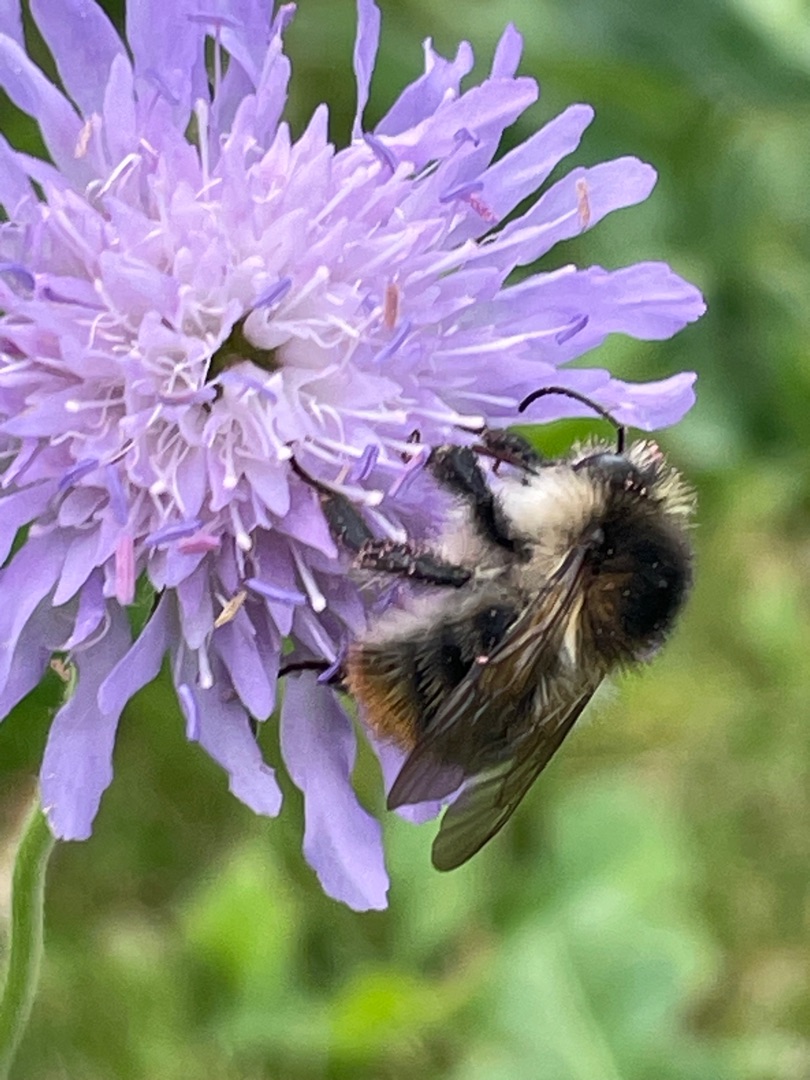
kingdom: Animalia
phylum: Arthropoda
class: Insecta
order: Hymenoptera
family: Apidae
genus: Bombus
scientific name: Bombus pascuorum
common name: Agerhumle
